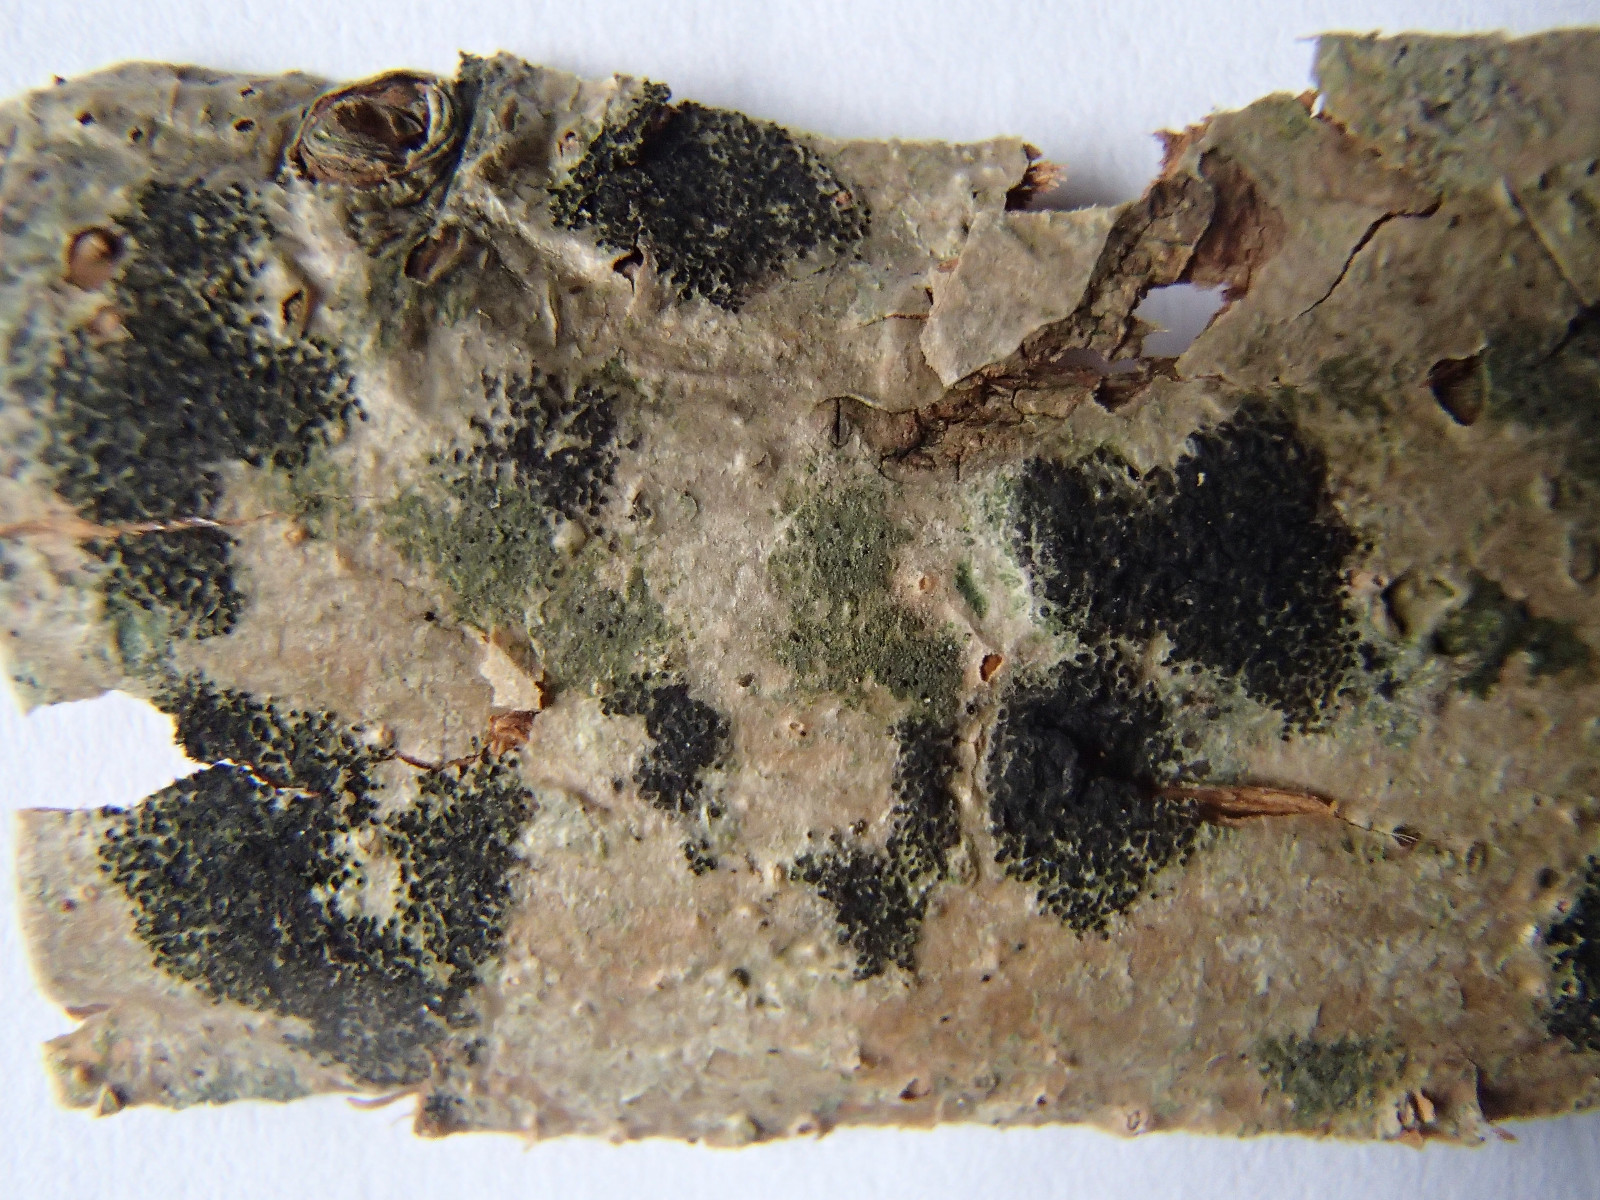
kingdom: Fungi
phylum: Ascomycota
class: Leotiomycetes
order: Rhytismatales
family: Ascodichaenaceae
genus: Ascodichaena
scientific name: Ascodichaena rugosa
